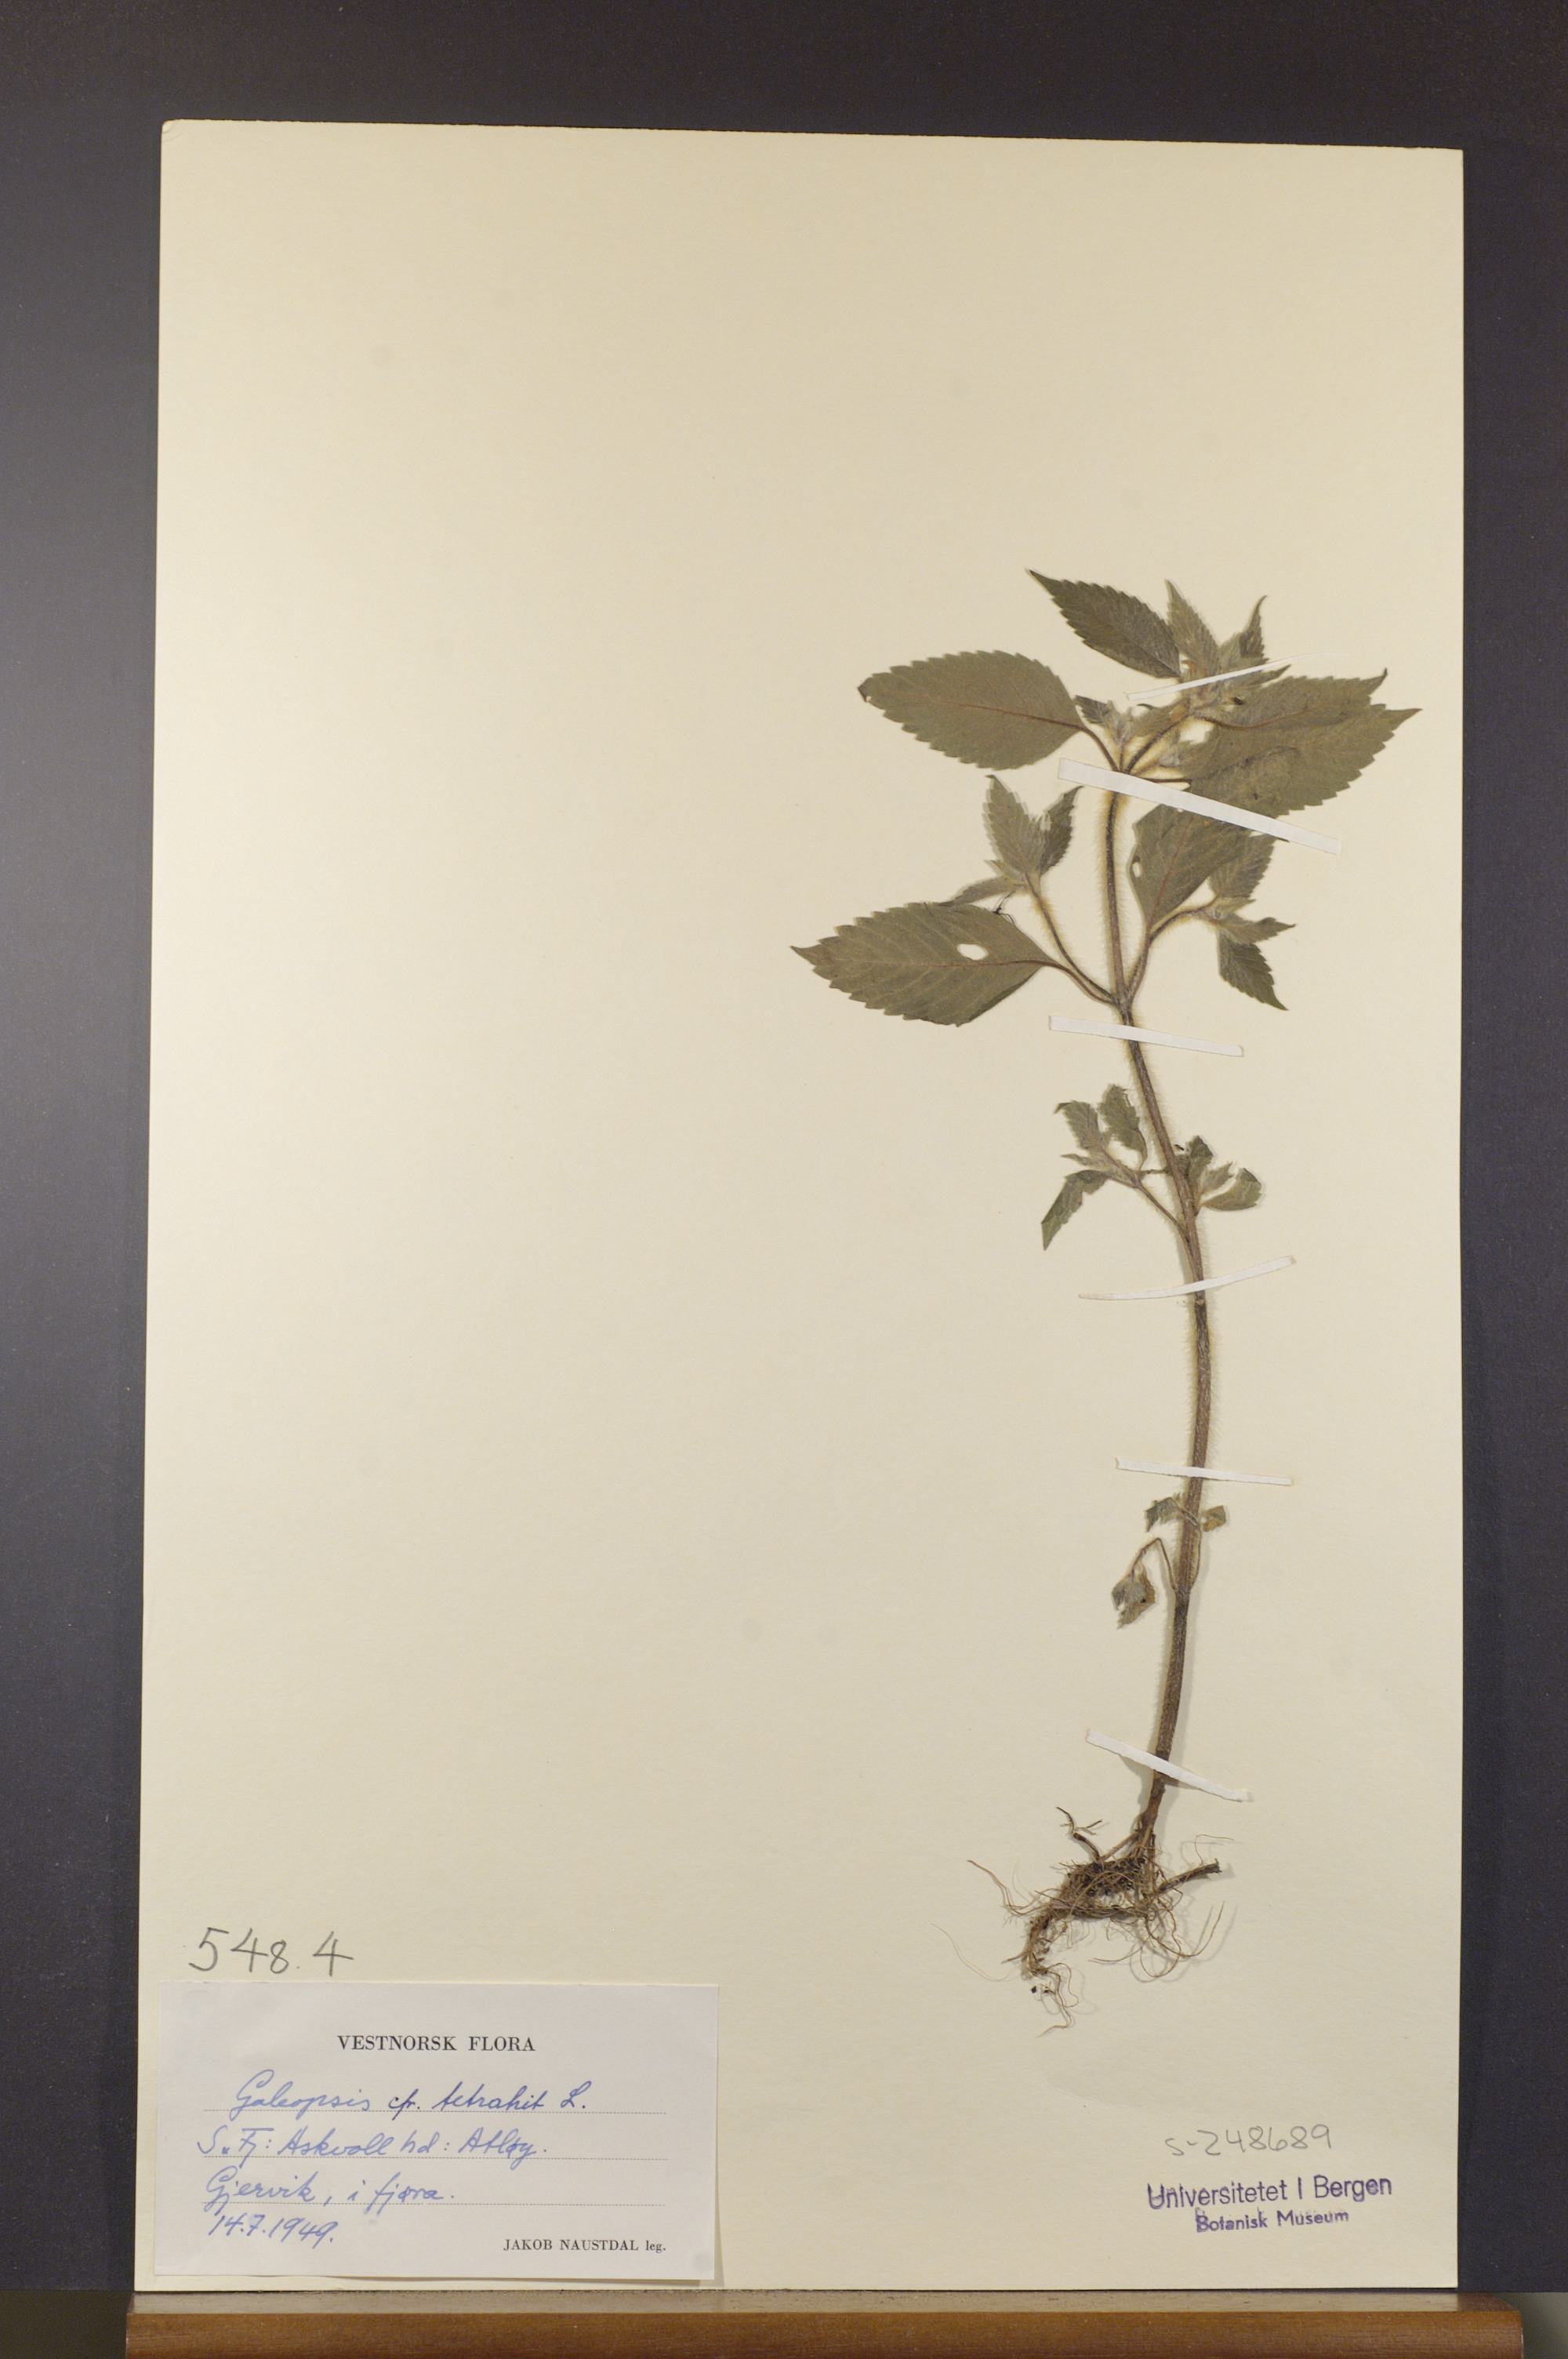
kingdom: Plantae
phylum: Tracheophyta
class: Magnoliopsida
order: Lamiales
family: Lamiaceae
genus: Galeopsis
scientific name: Galeopsis tetrahit
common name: Common hemp-nettle
